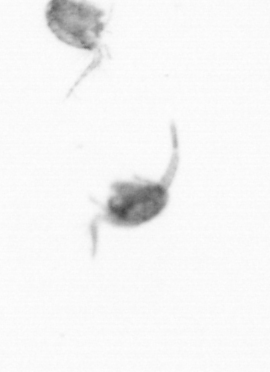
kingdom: Animalia
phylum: Arthropoda
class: Copepoda
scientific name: Copepoda
